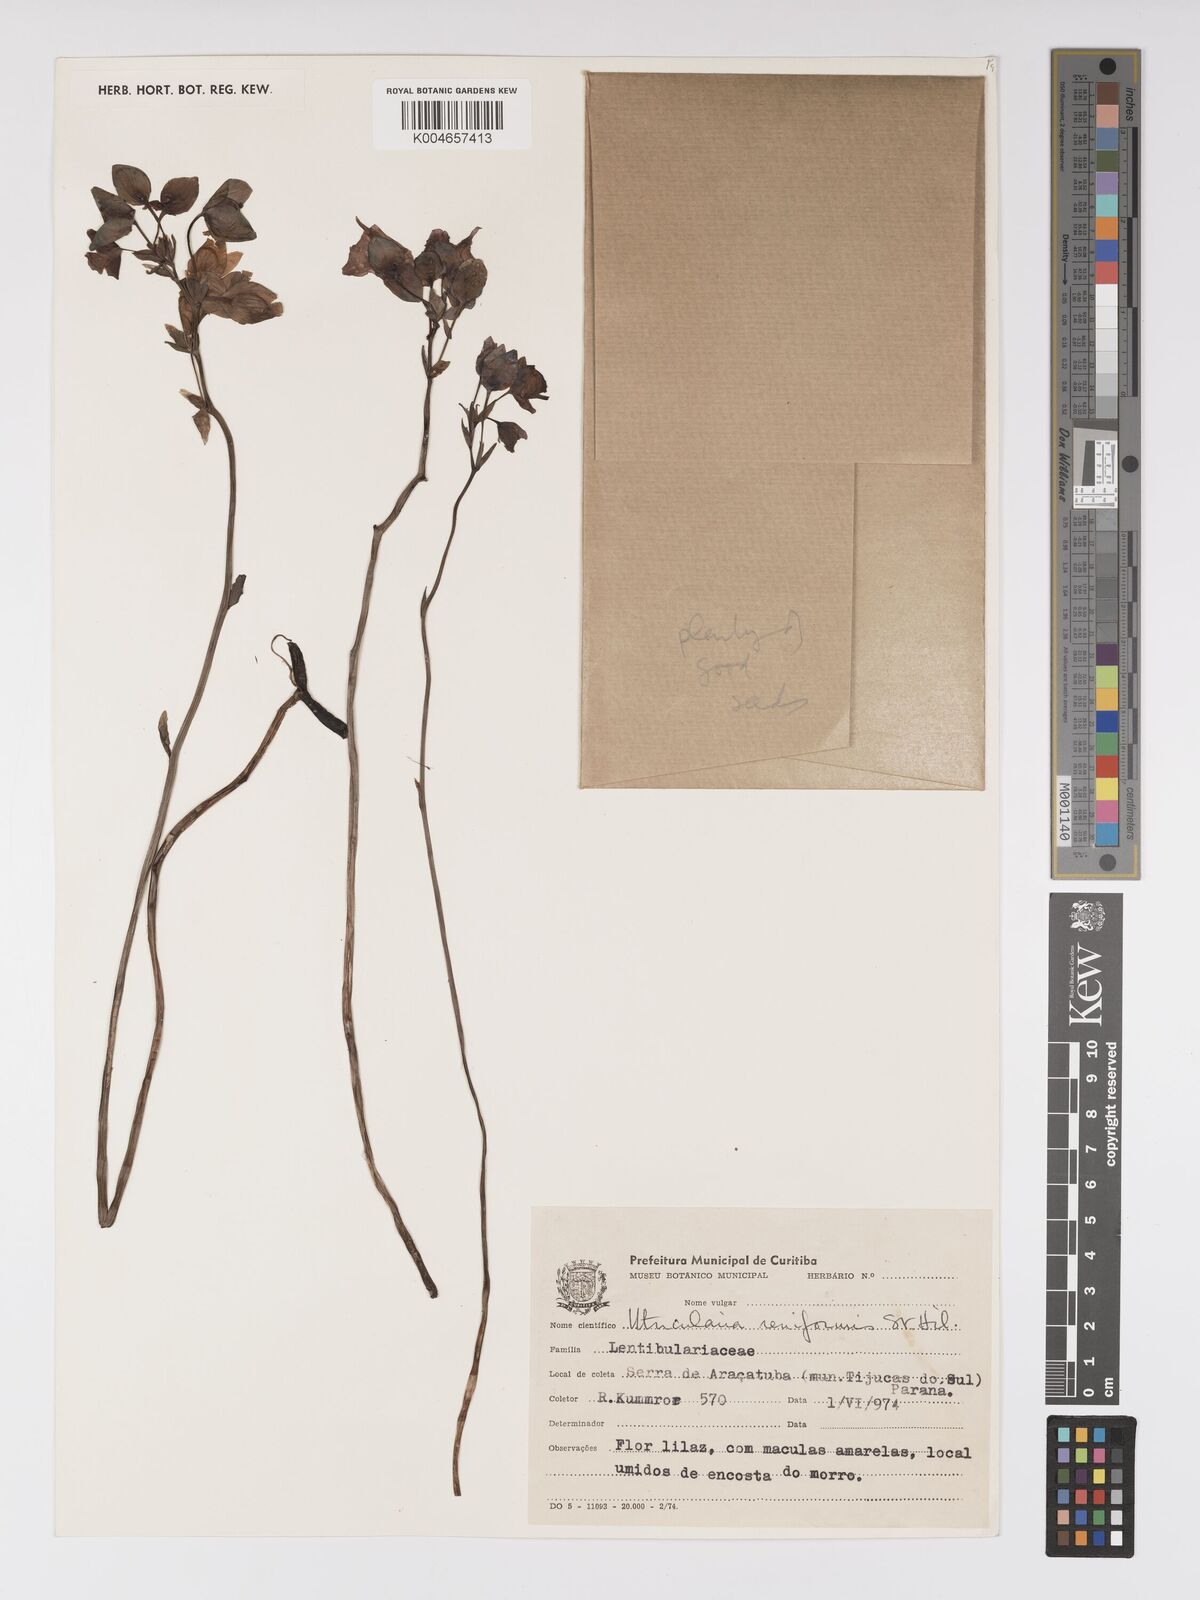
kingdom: Plantae
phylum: Tracheophyta
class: Magnoliopsida
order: Lamiales
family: Lentibulariaceae
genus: Utricularia
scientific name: Utricularia reniformis
